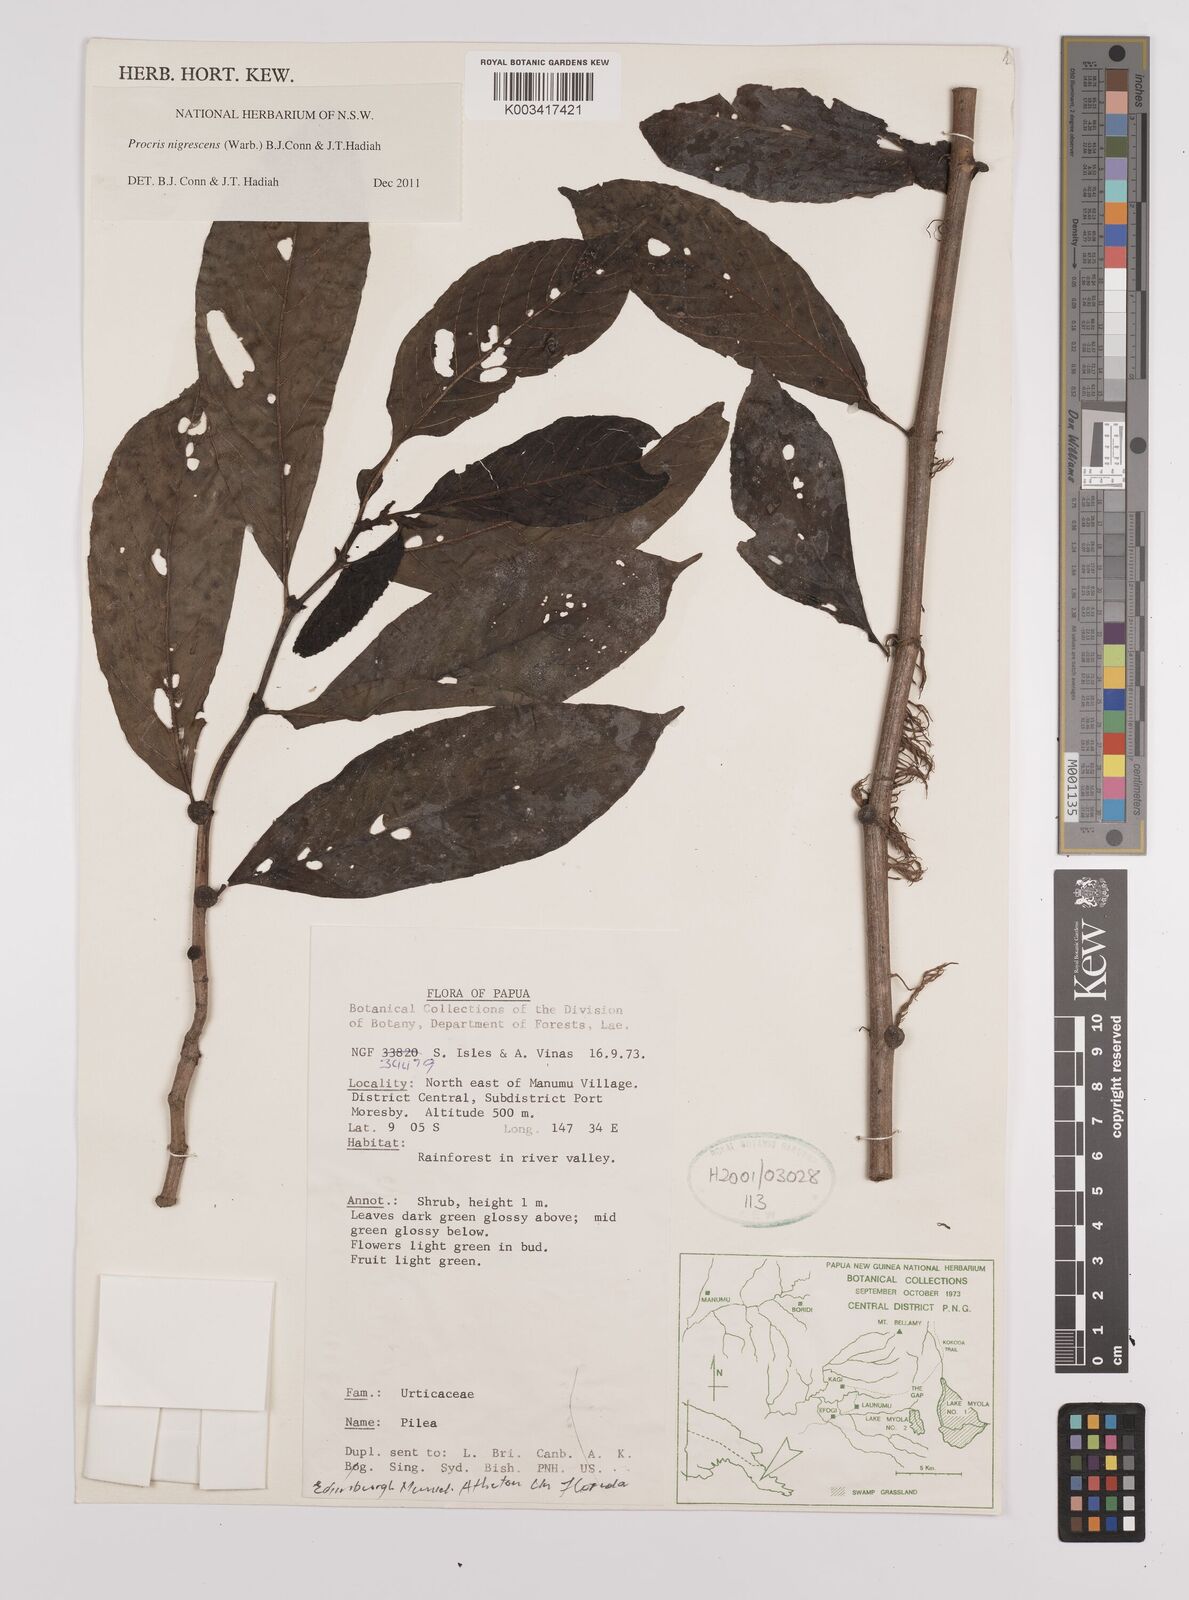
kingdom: Plantae
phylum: Tracheophyta
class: Magnoliopsida
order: Rosales
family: Urticaceae
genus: Procris
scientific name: Procris
